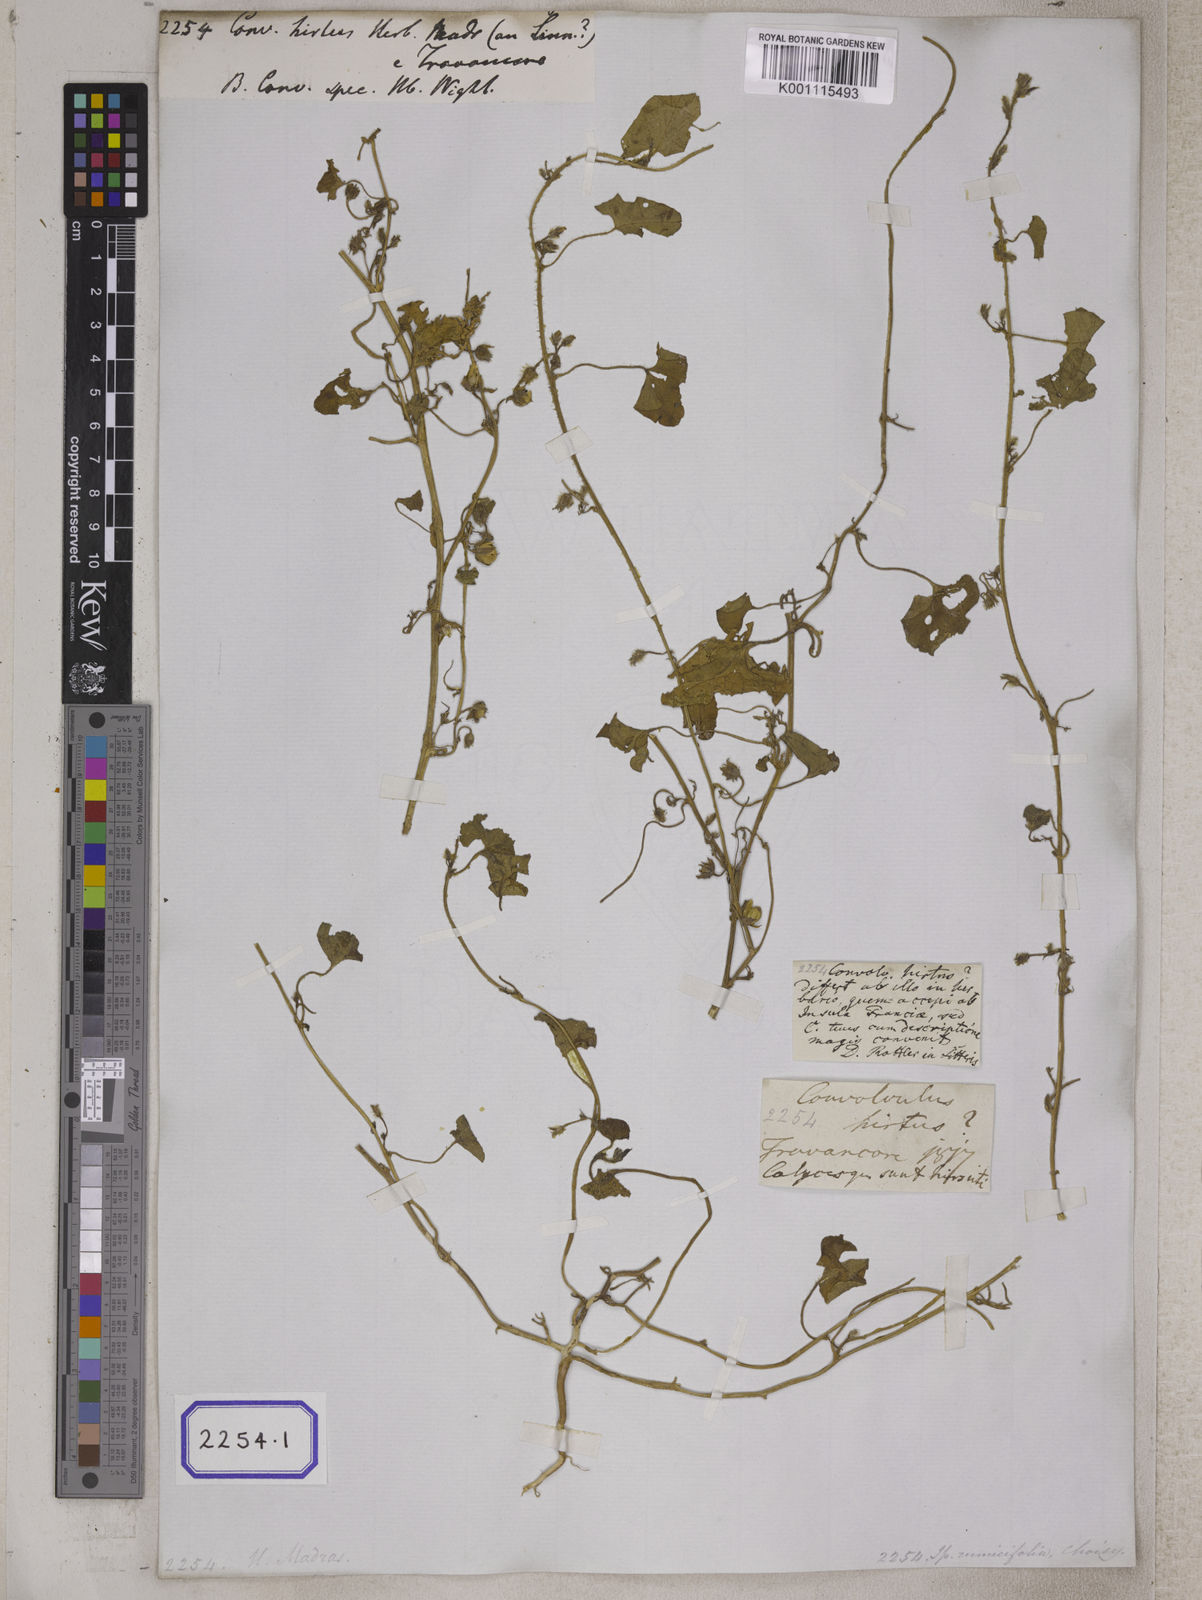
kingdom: Plantae
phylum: Tracheophyta
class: Magnoliopsida
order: Solanales
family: Convolvulaceae
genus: Convolvulus
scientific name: Convolvulus
